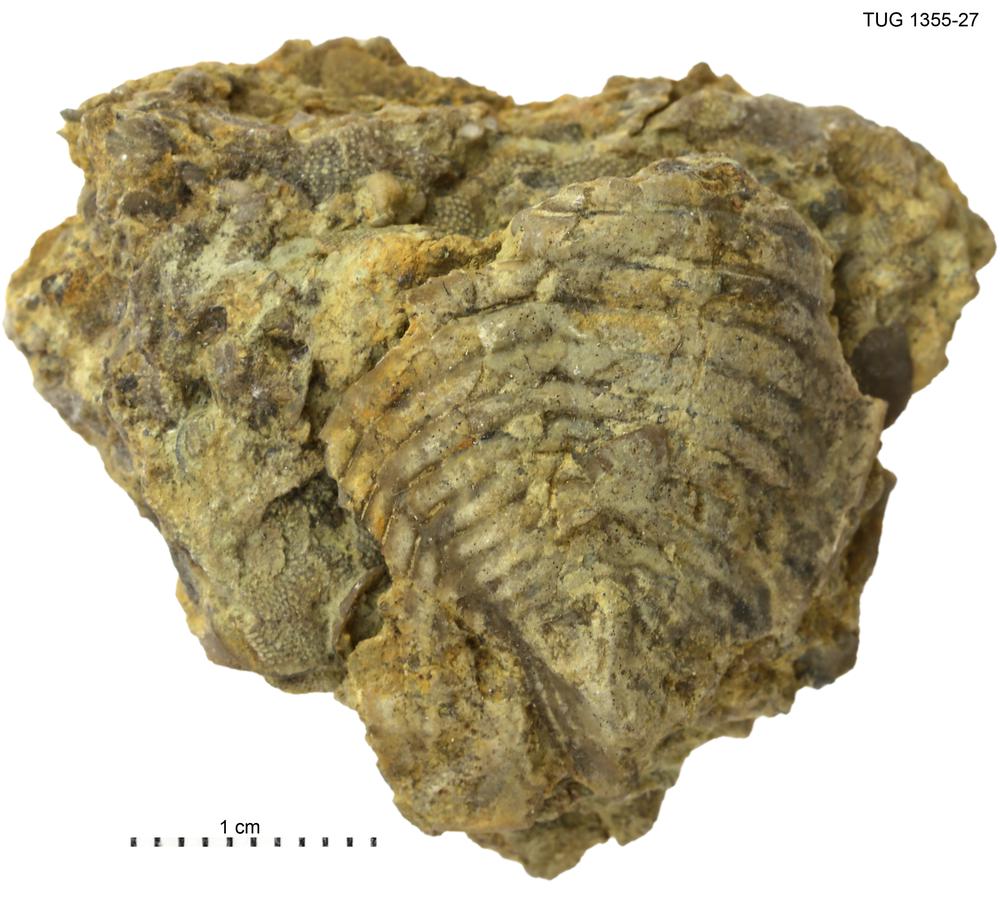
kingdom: Animalia
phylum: Arthropoda
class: Trilobita
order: Phacopida
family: Pterygometopidae
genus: Chasmops
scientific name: Chasmops macrourus
